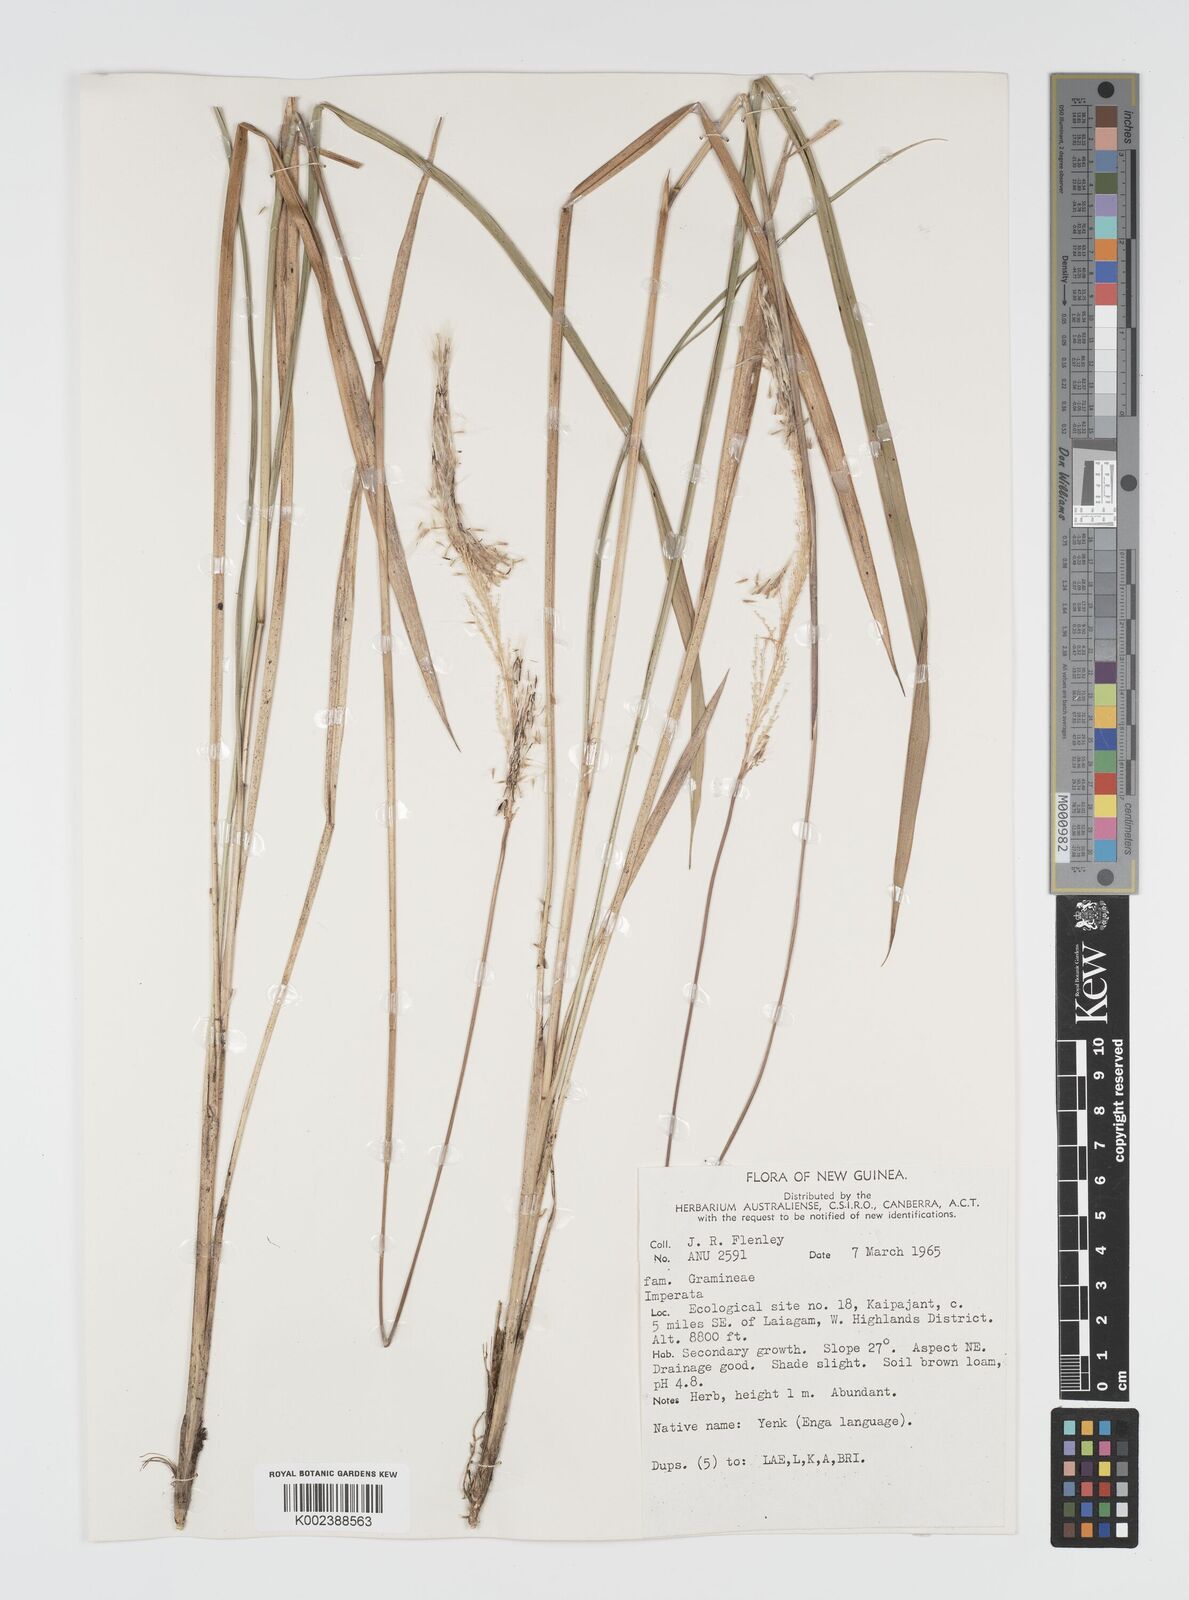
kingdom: Plantae
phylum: Tracheophyta
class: Liliopsida
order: Poales
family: Poaceae
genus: Imperata
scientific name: Imperata cylindrica
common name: Cogongrass
